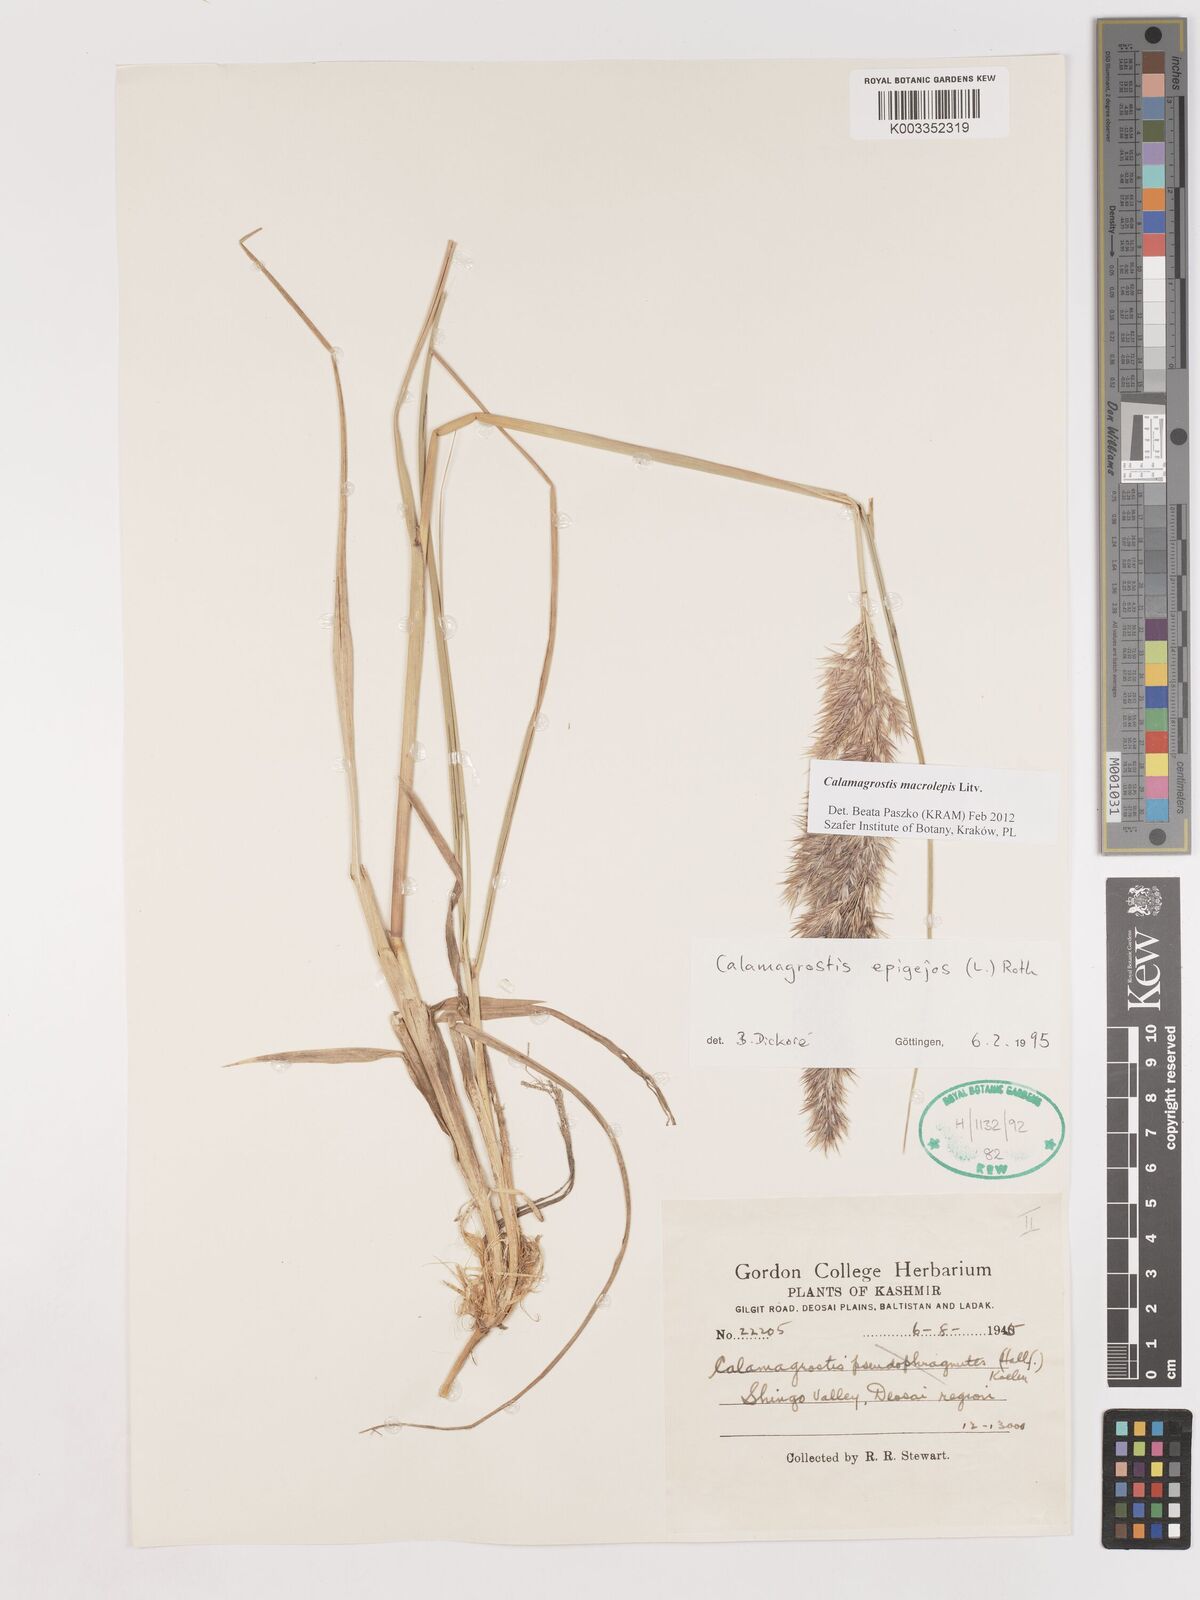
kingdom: Plantae
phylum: Tracheophyta
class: Liliopsida
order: Poales
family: Poaceae
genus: Calamagrostis
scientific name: Calamagrostis epigejos
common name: Wood small-reed
